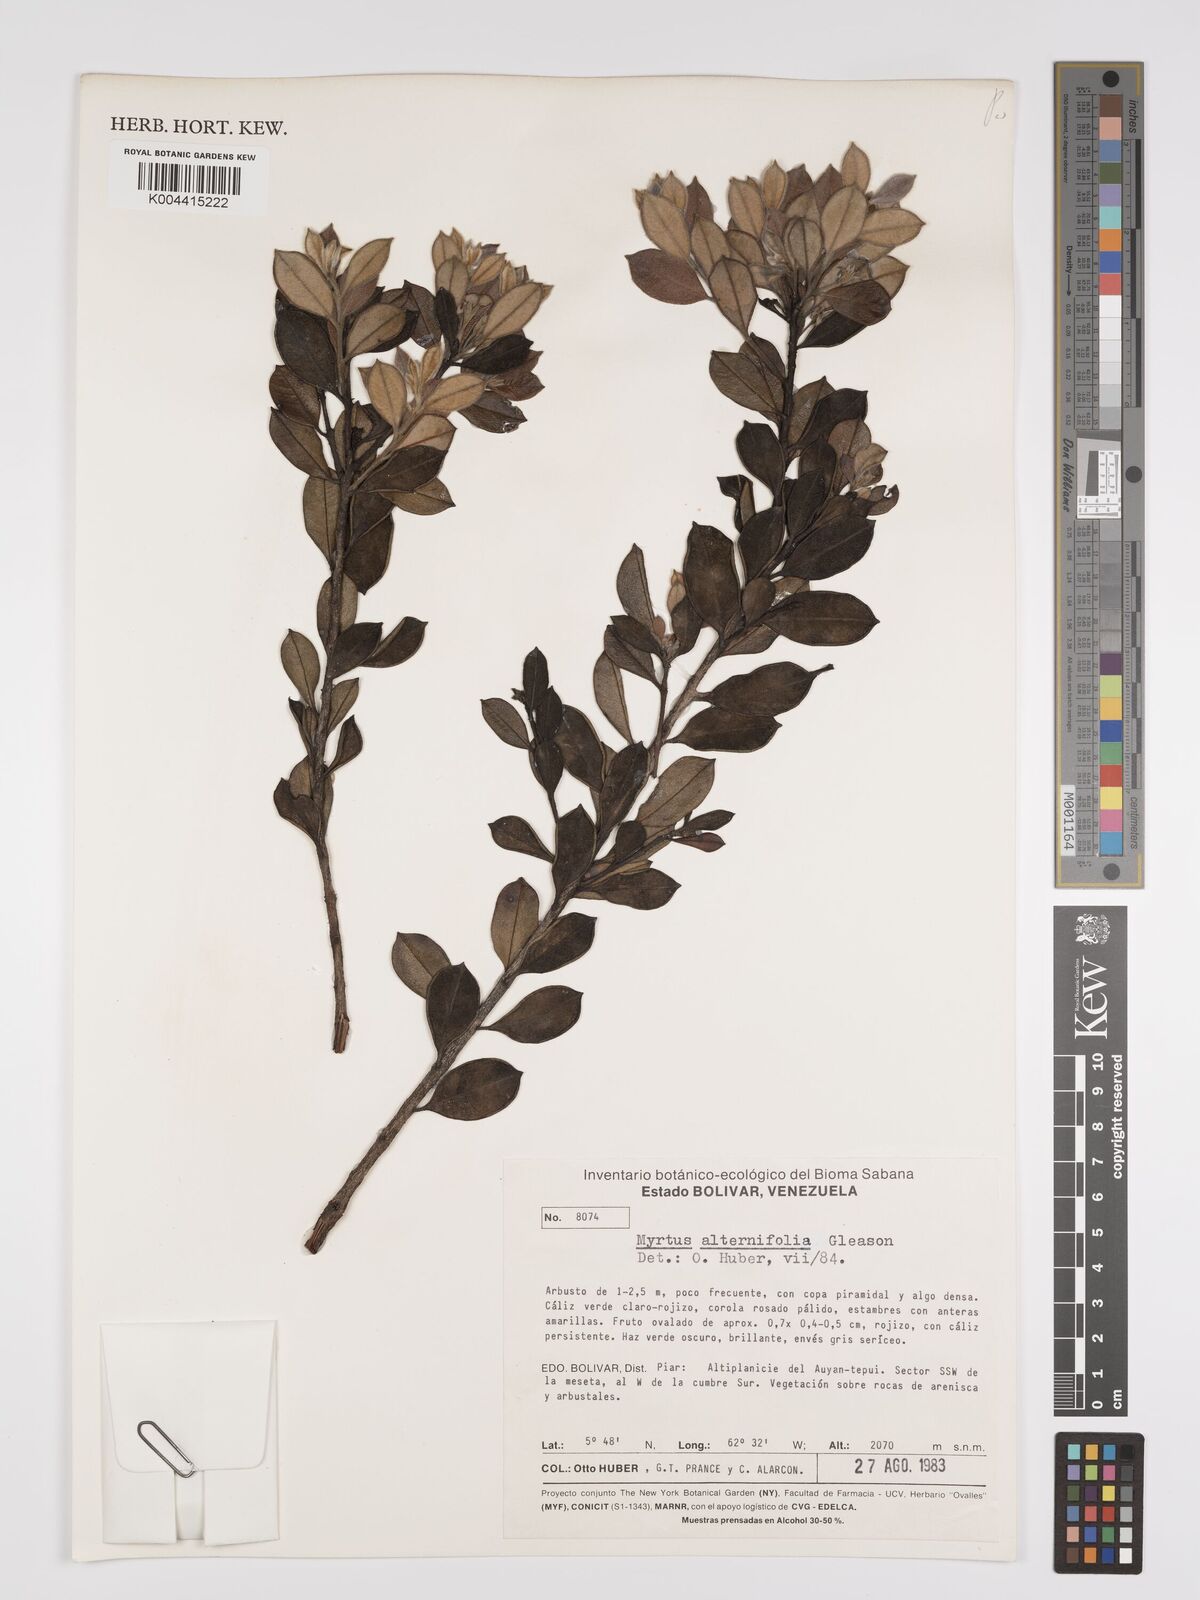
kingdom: Plantae
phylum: Tracheophyta
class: Magnoliopsida
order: Myrtales
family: Myrtaceae
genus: Calycolpus
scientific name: Calycolpus alternifolius
